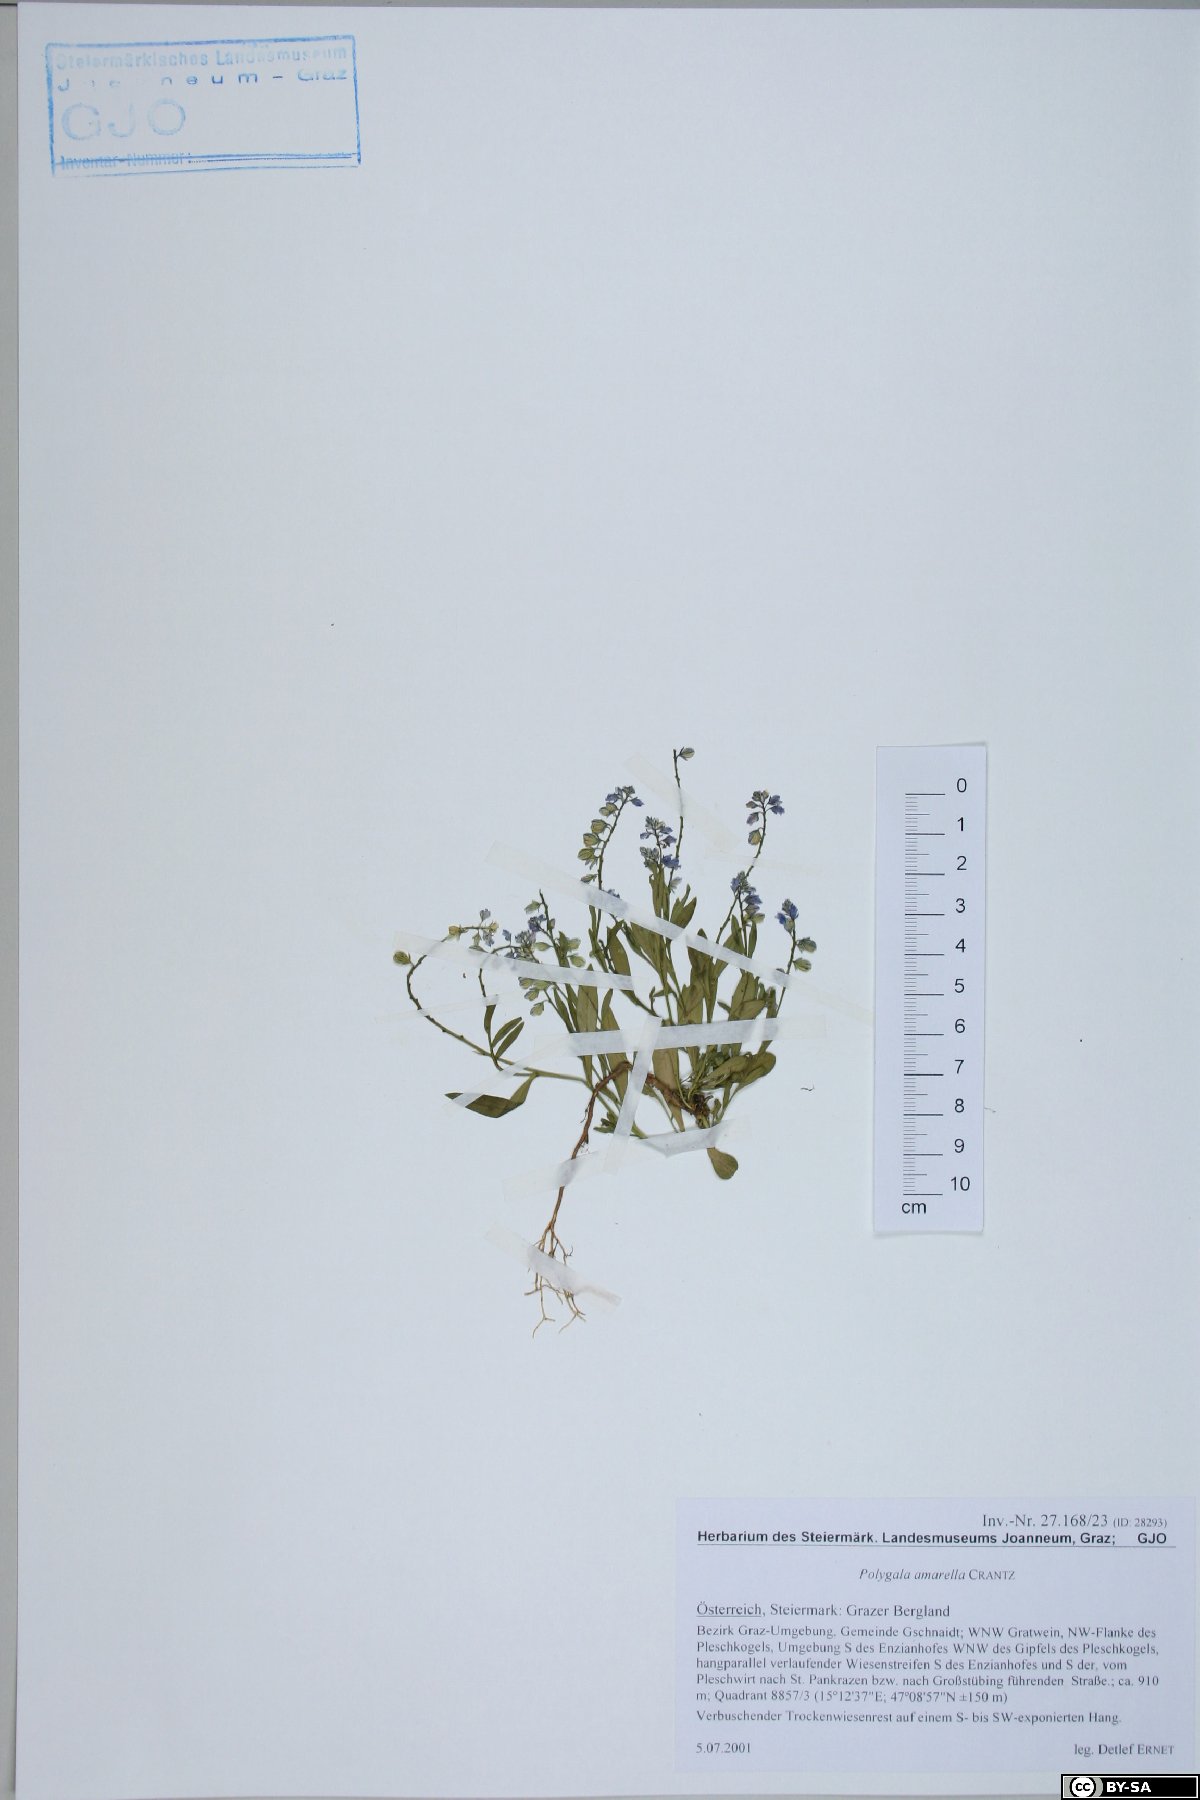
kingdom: Plantae
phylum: Tracheophyta
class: Magnoliopsida
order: Fabales
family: Polygalaceae
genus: Polygala
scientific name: Polygala amarella
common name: Dwarf milkwort
